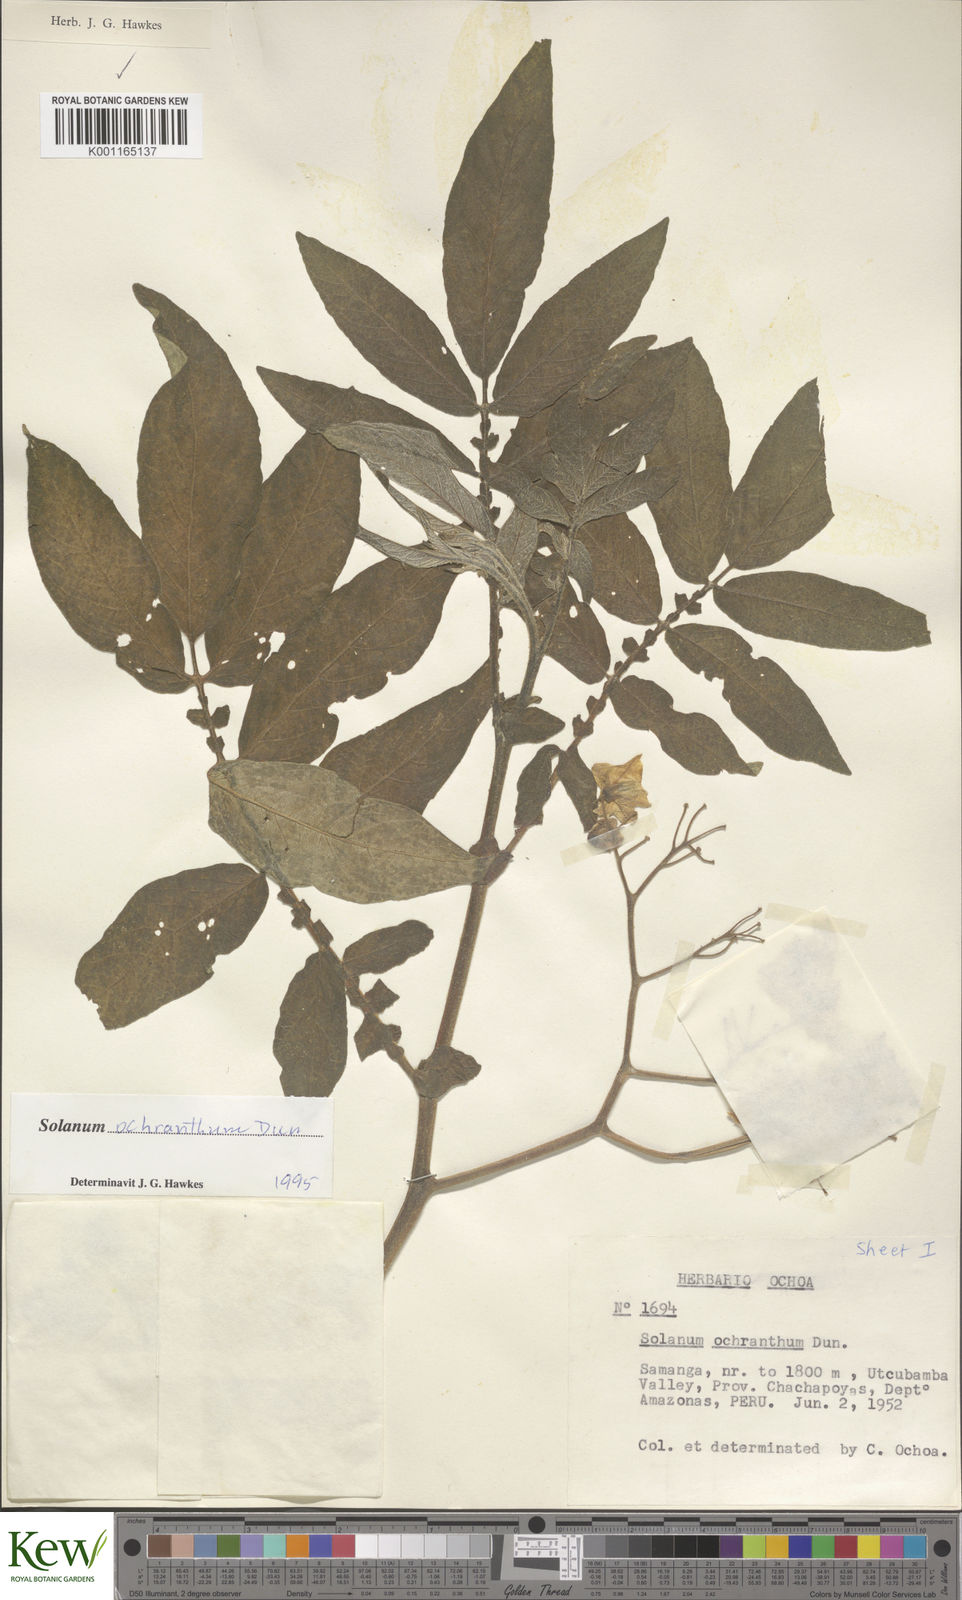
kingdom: Plantae
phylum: Tracheophyta
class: Magnoliopsida
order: Solanales
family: Solanaceae
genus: Solanum
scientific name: Solanum ochranthum
